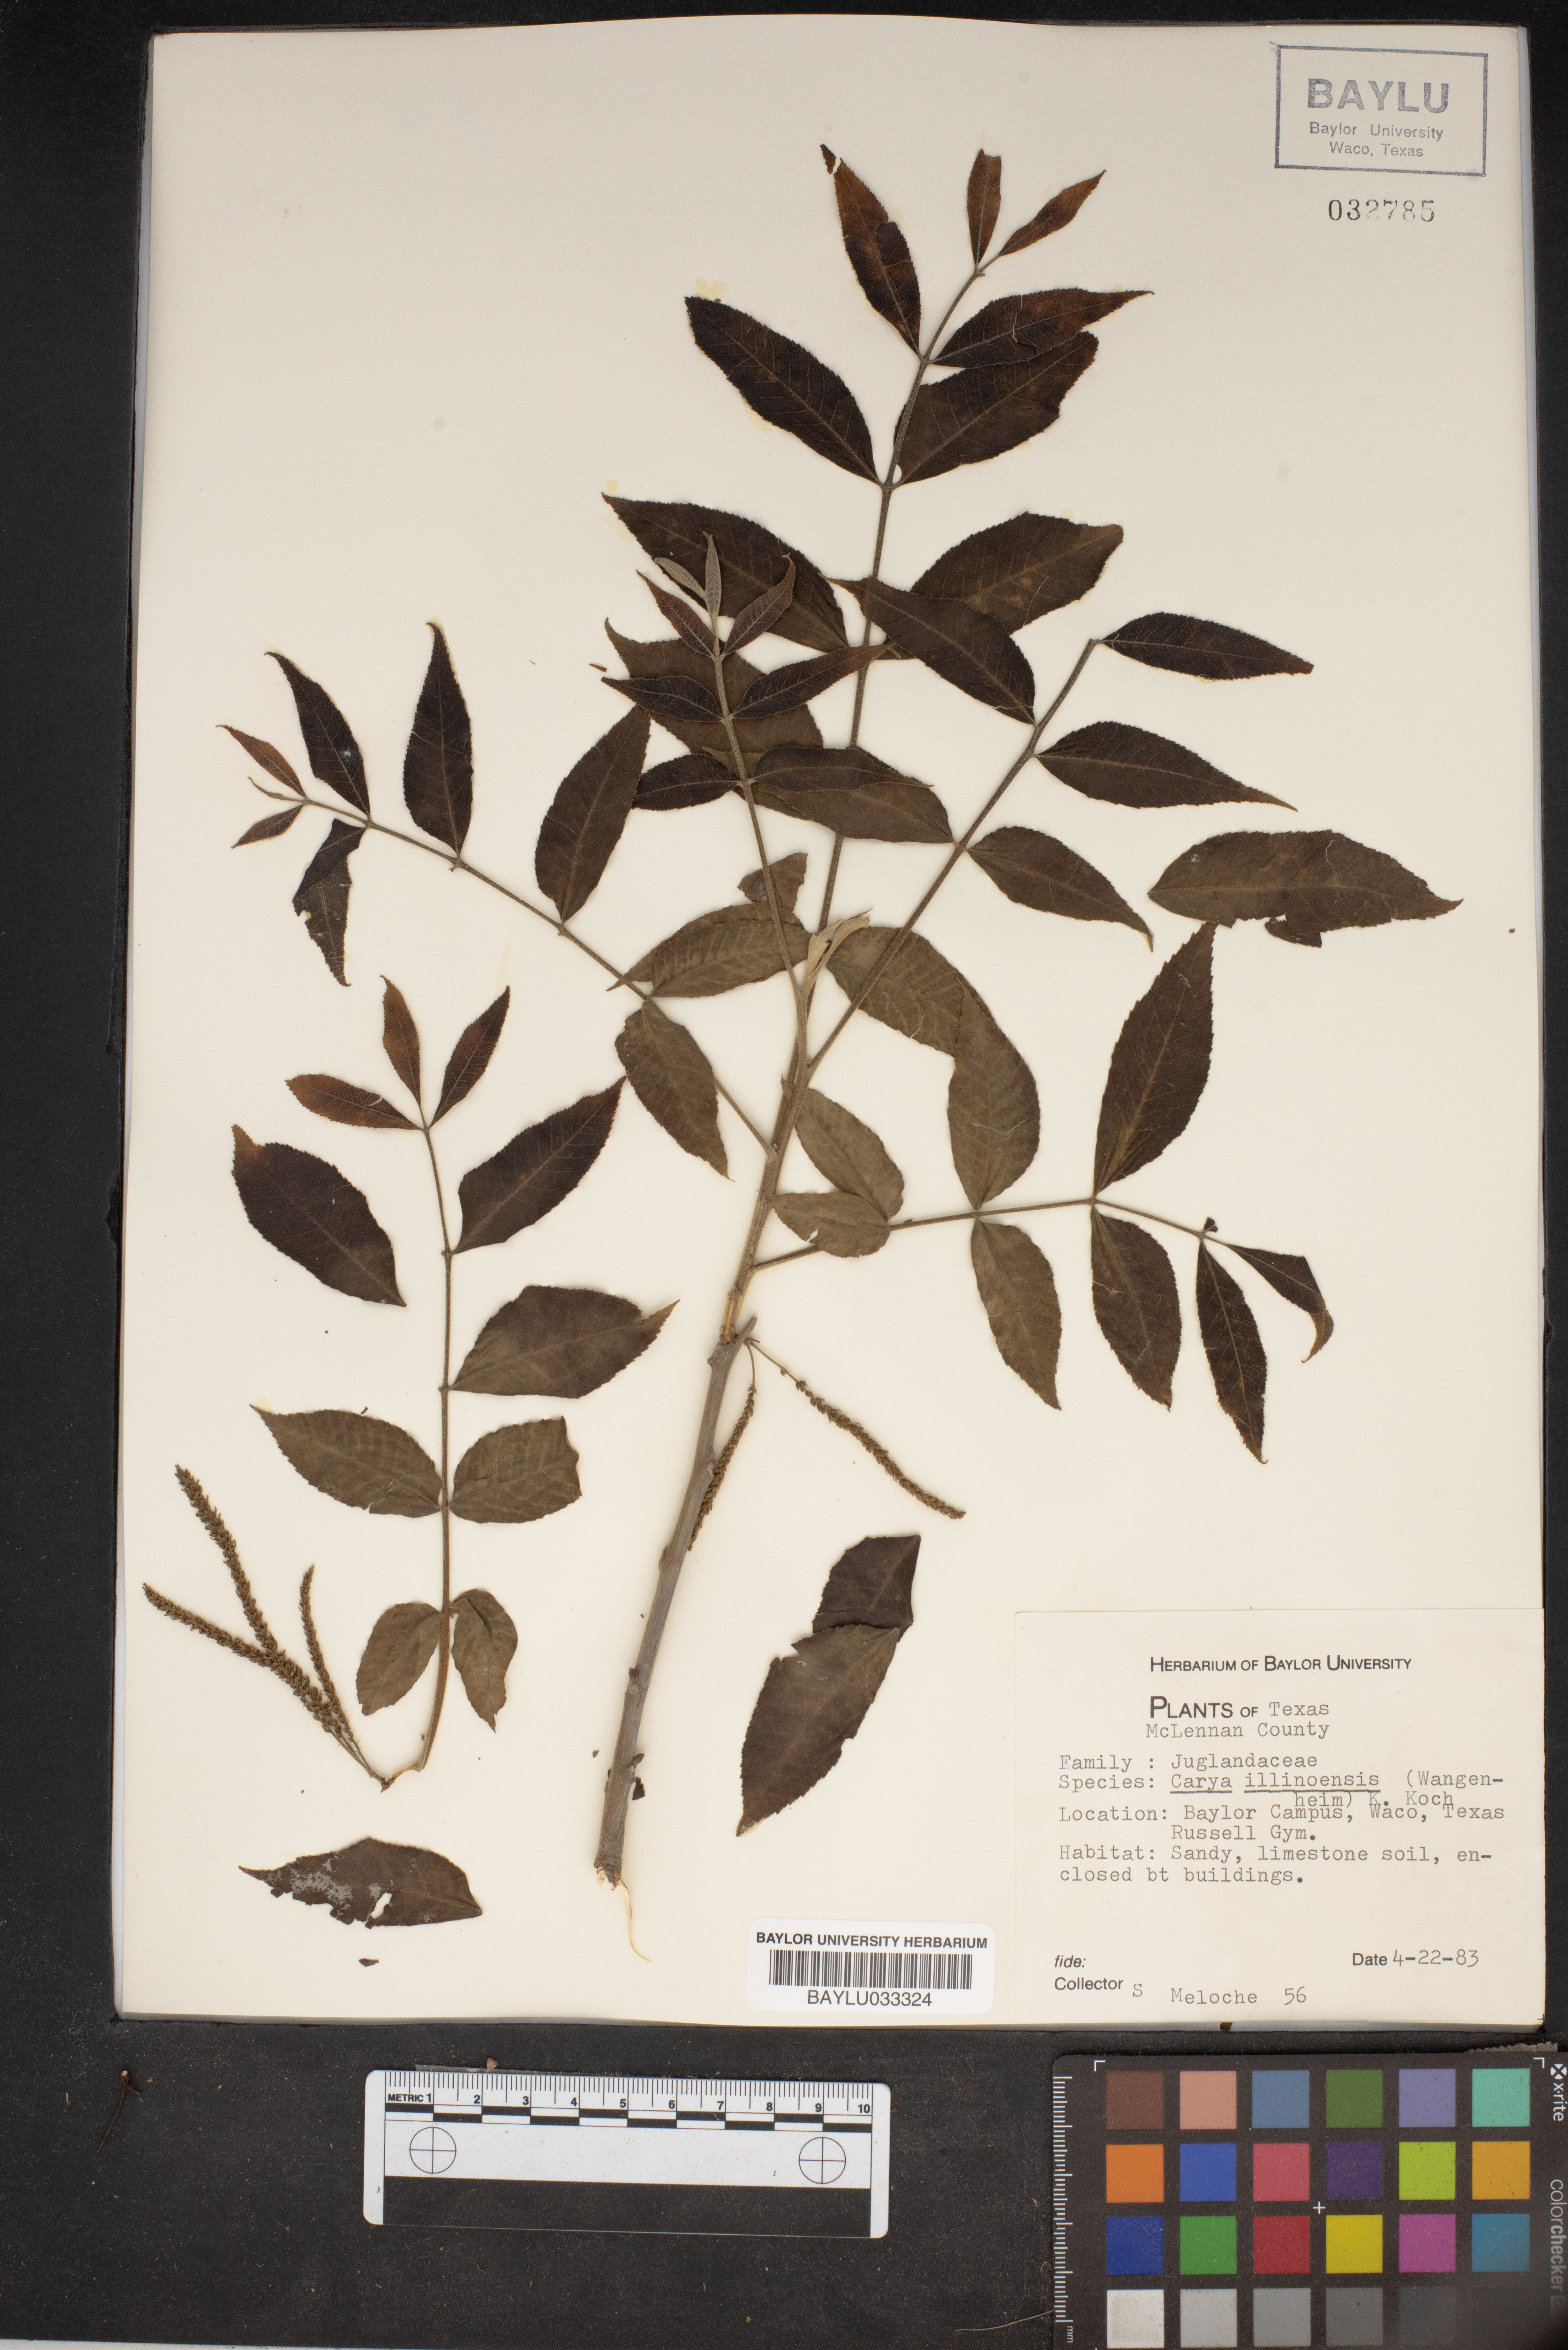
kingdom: Plantae
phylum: Tracheophyta
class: Magnoliopsida
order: Fagales
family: Juglandaceae
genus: Carya
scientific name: Carya
